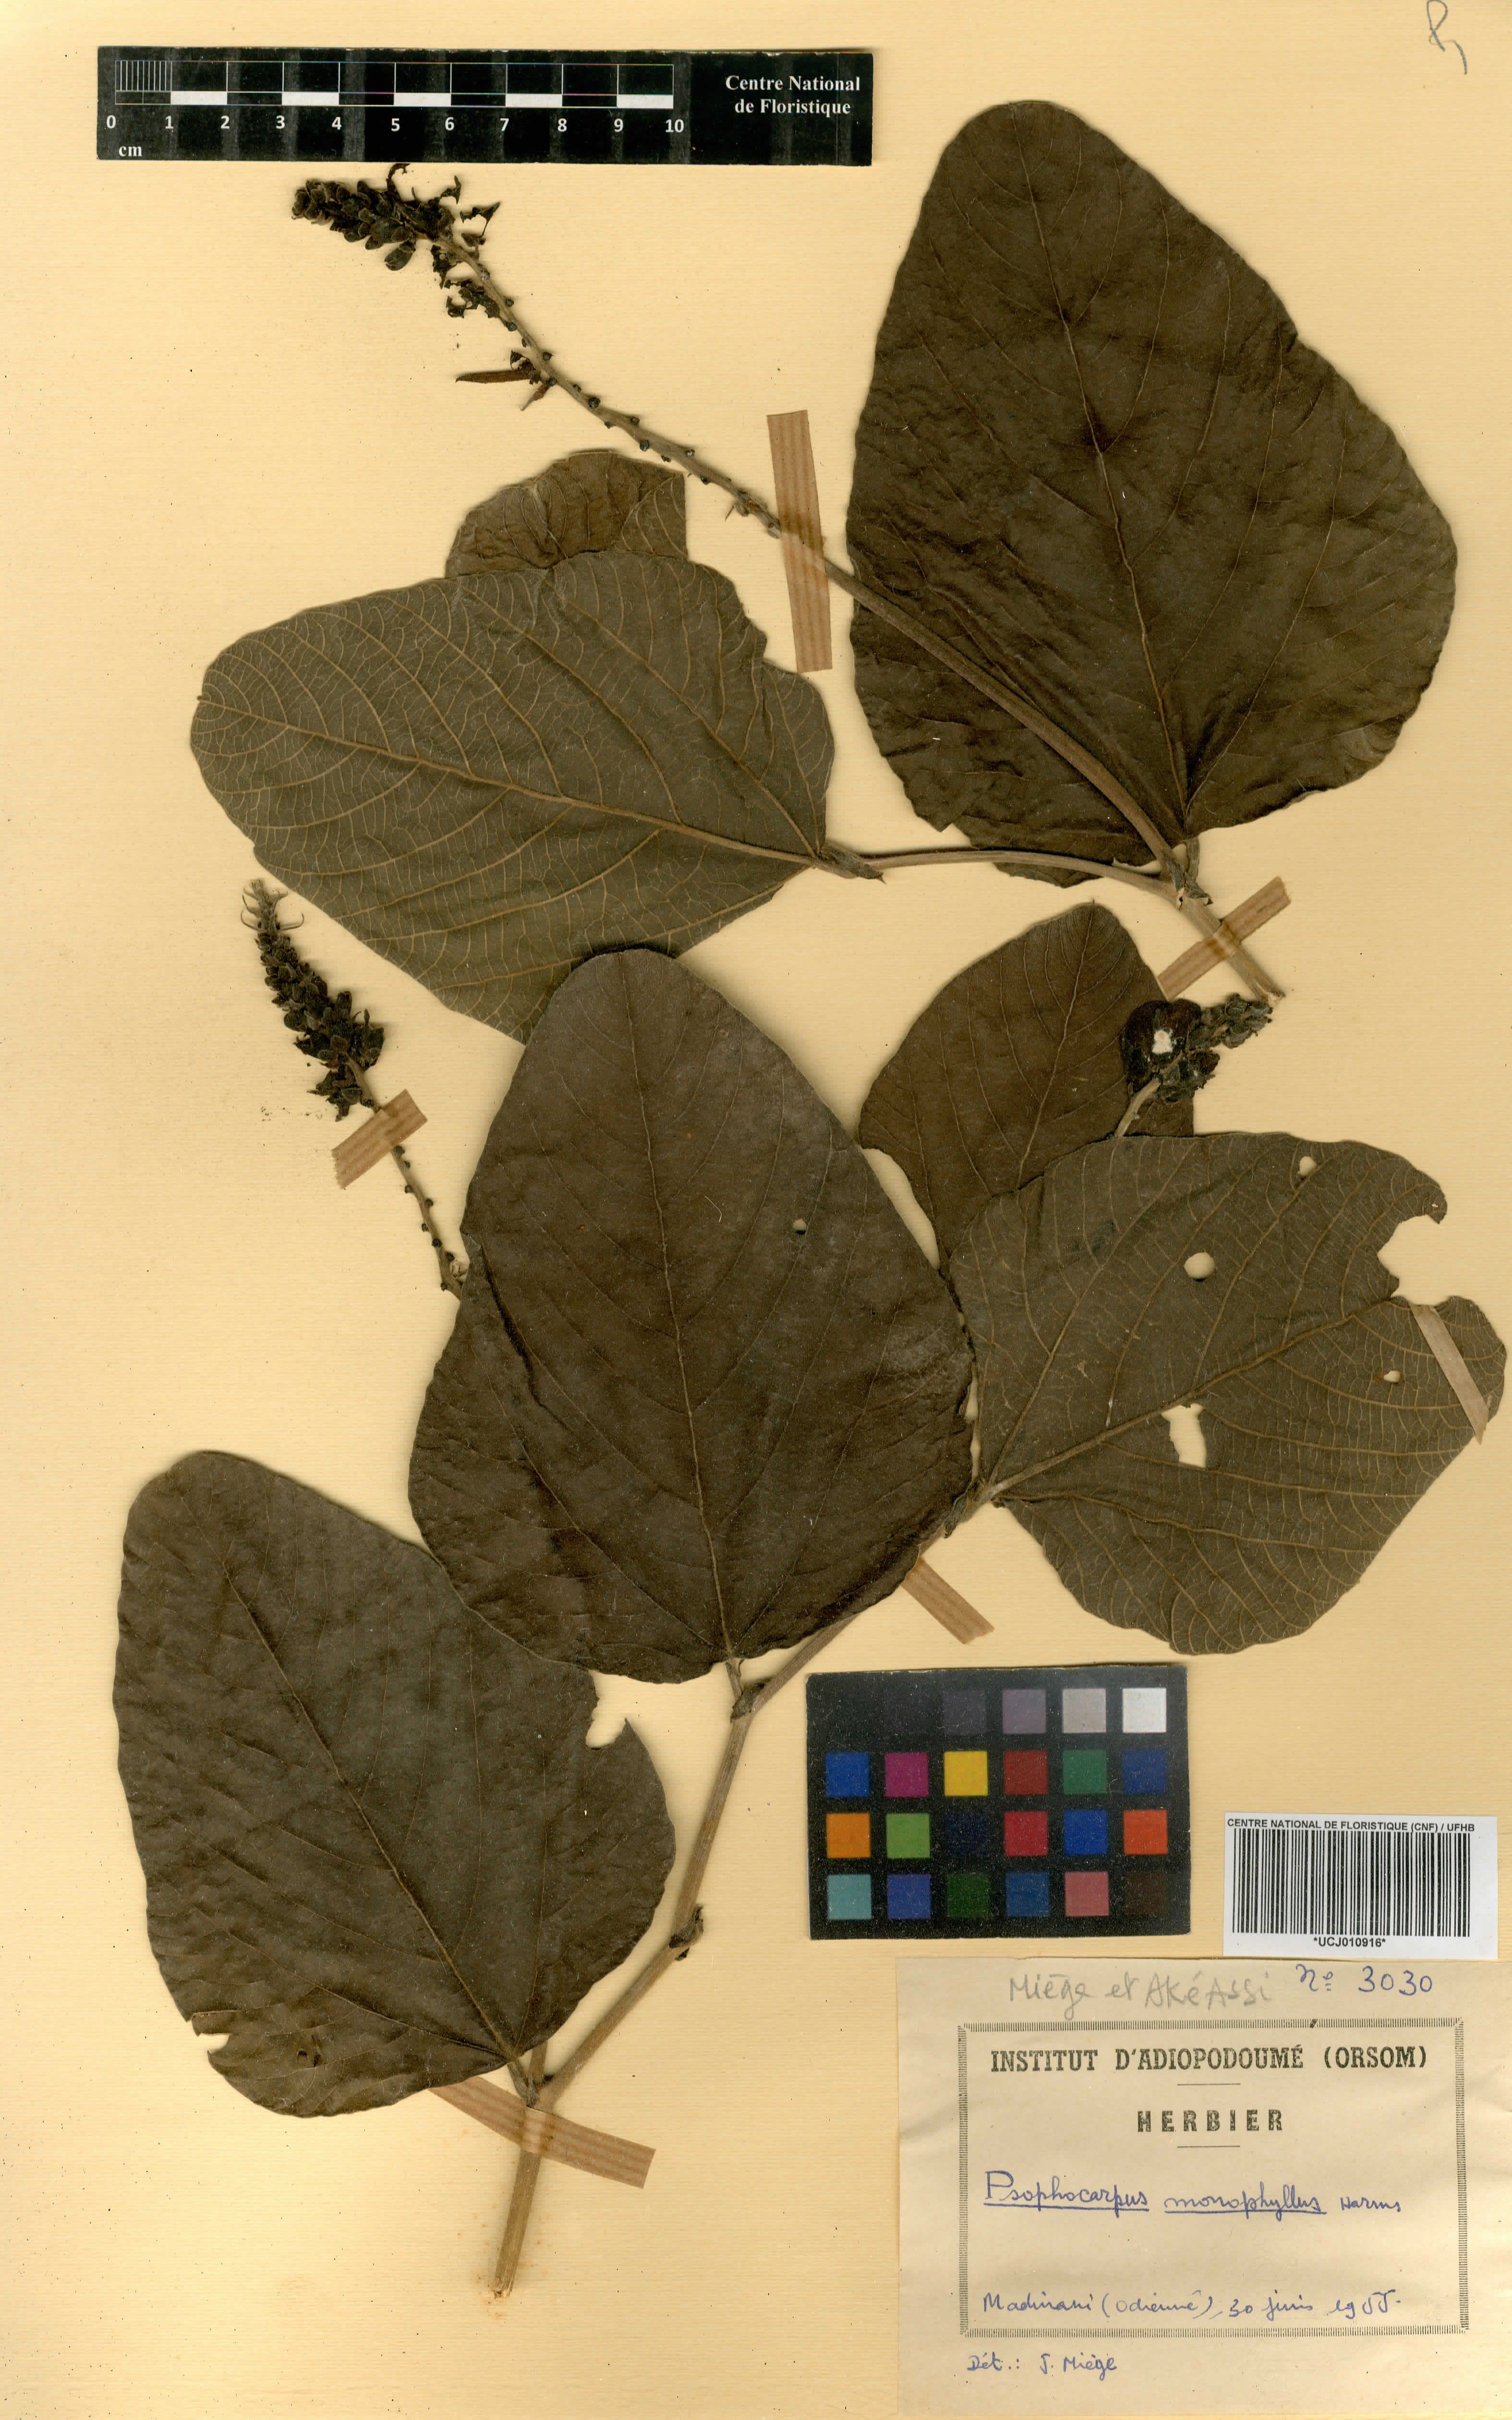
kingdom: Plantae
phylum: Tracheophyta
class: Magnoliopsida
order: Fabales
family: Fabaceae
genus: Psophocarpus
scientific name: Psophocarpus monophyllus
